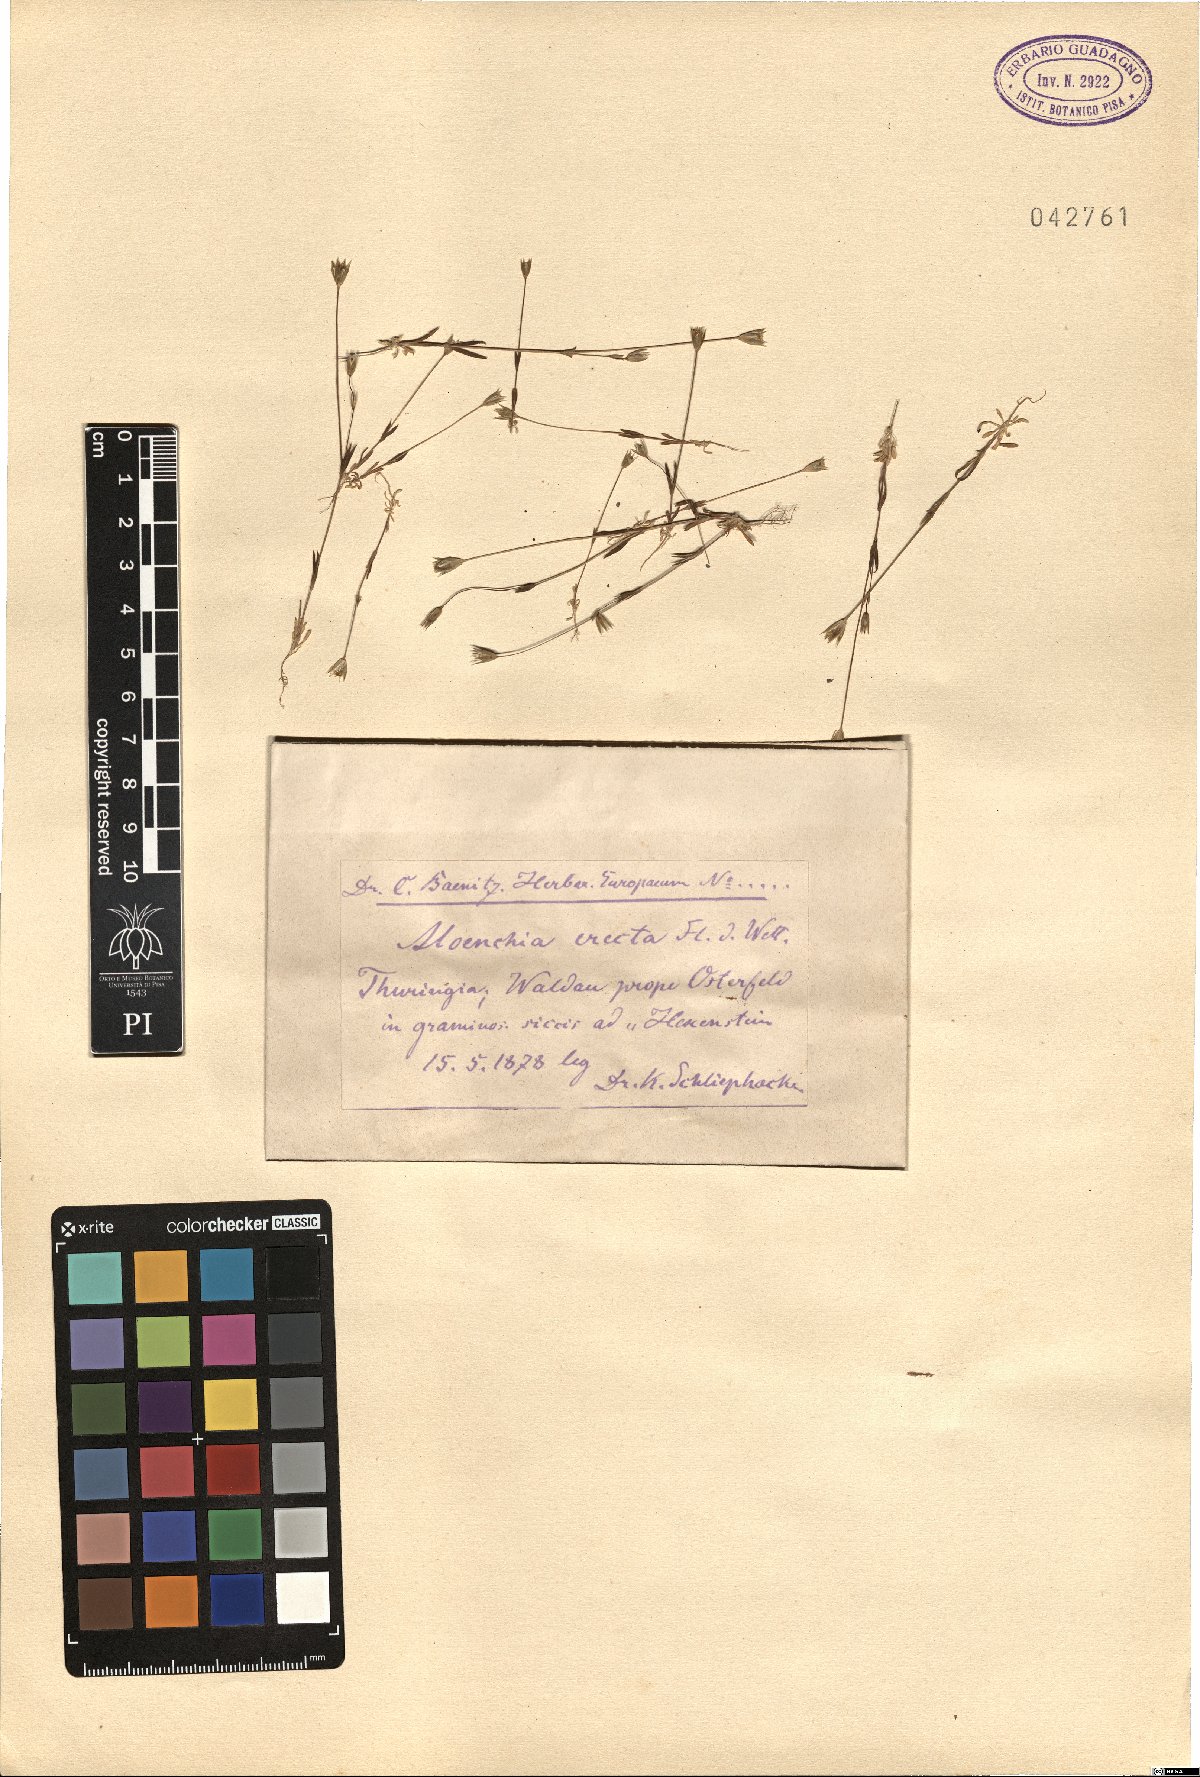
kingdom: Plantae
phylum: Tracheophyta
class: Magnoliopsida
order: Caryophyllales
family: Caryophyllaceae
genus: Moenchia
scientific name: Moenchia erecta
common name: Upright chickweed
